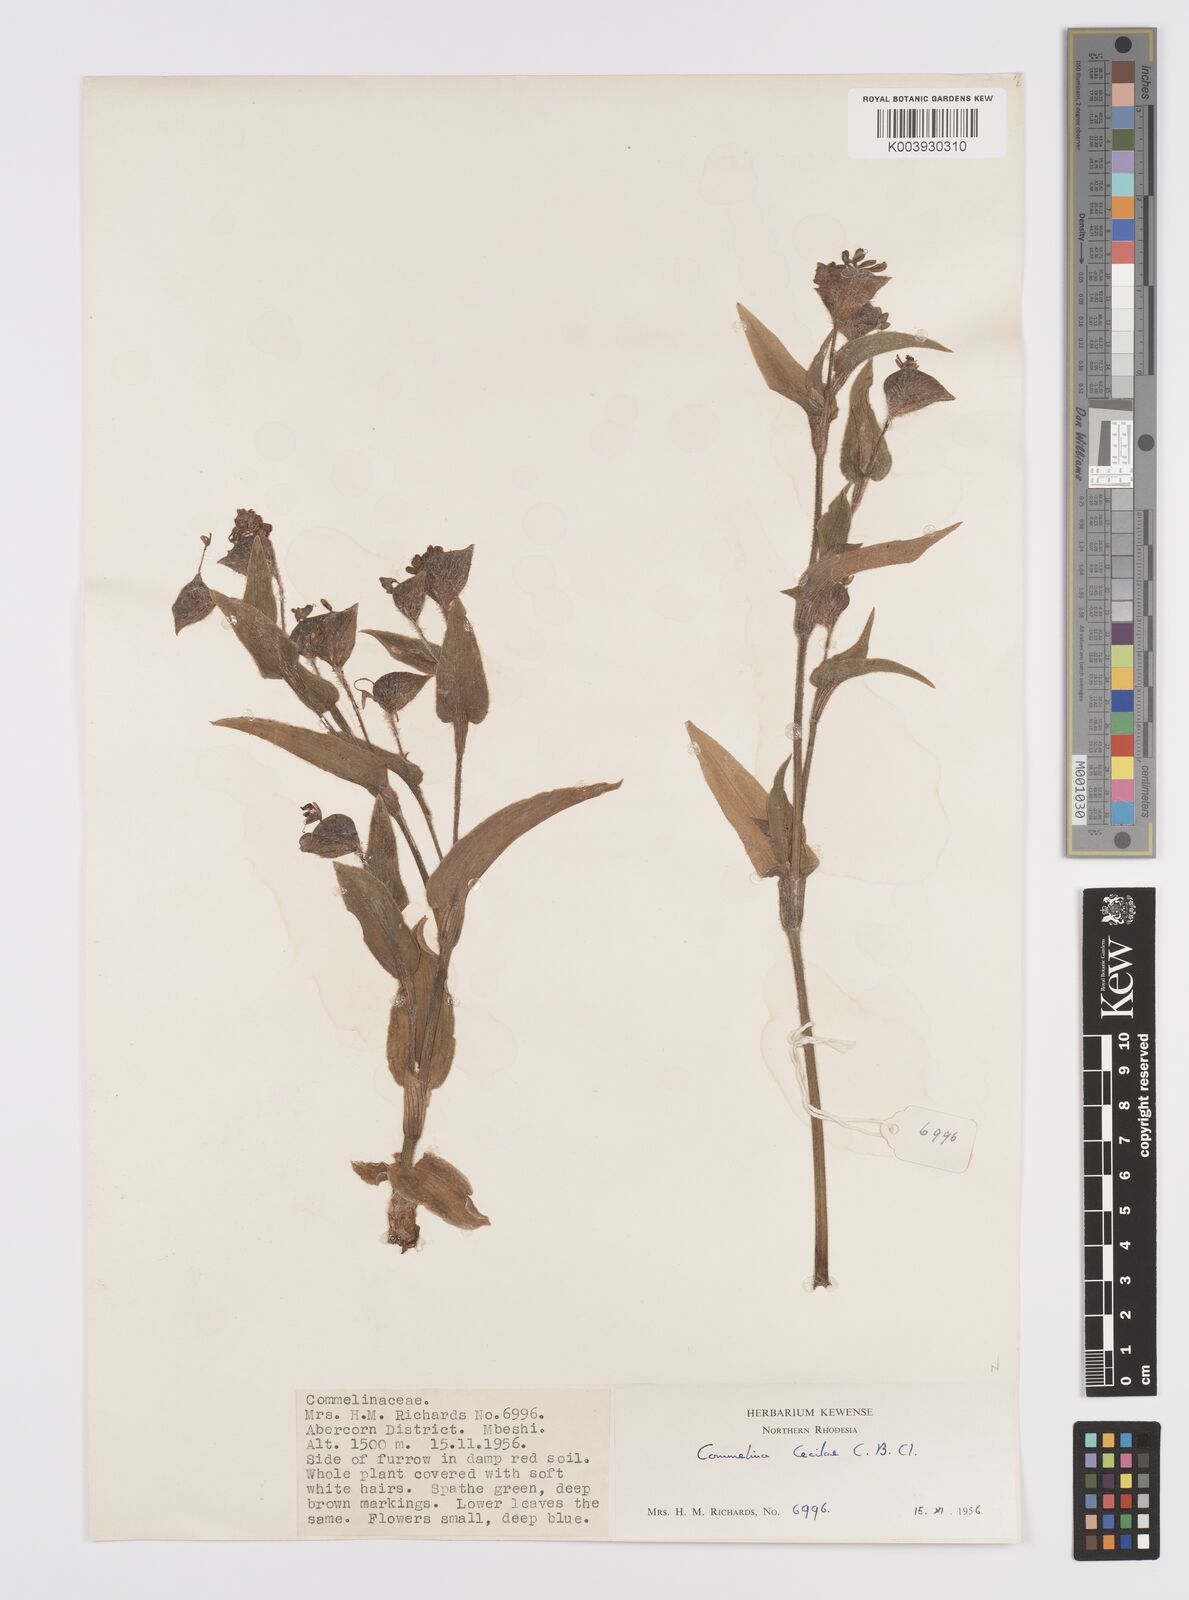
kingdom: Plantae
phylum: Tracheophyta
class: Liliopsida
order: Commelinales
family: Commelinaceae
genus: Commelina
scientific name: Commelina cecilae
